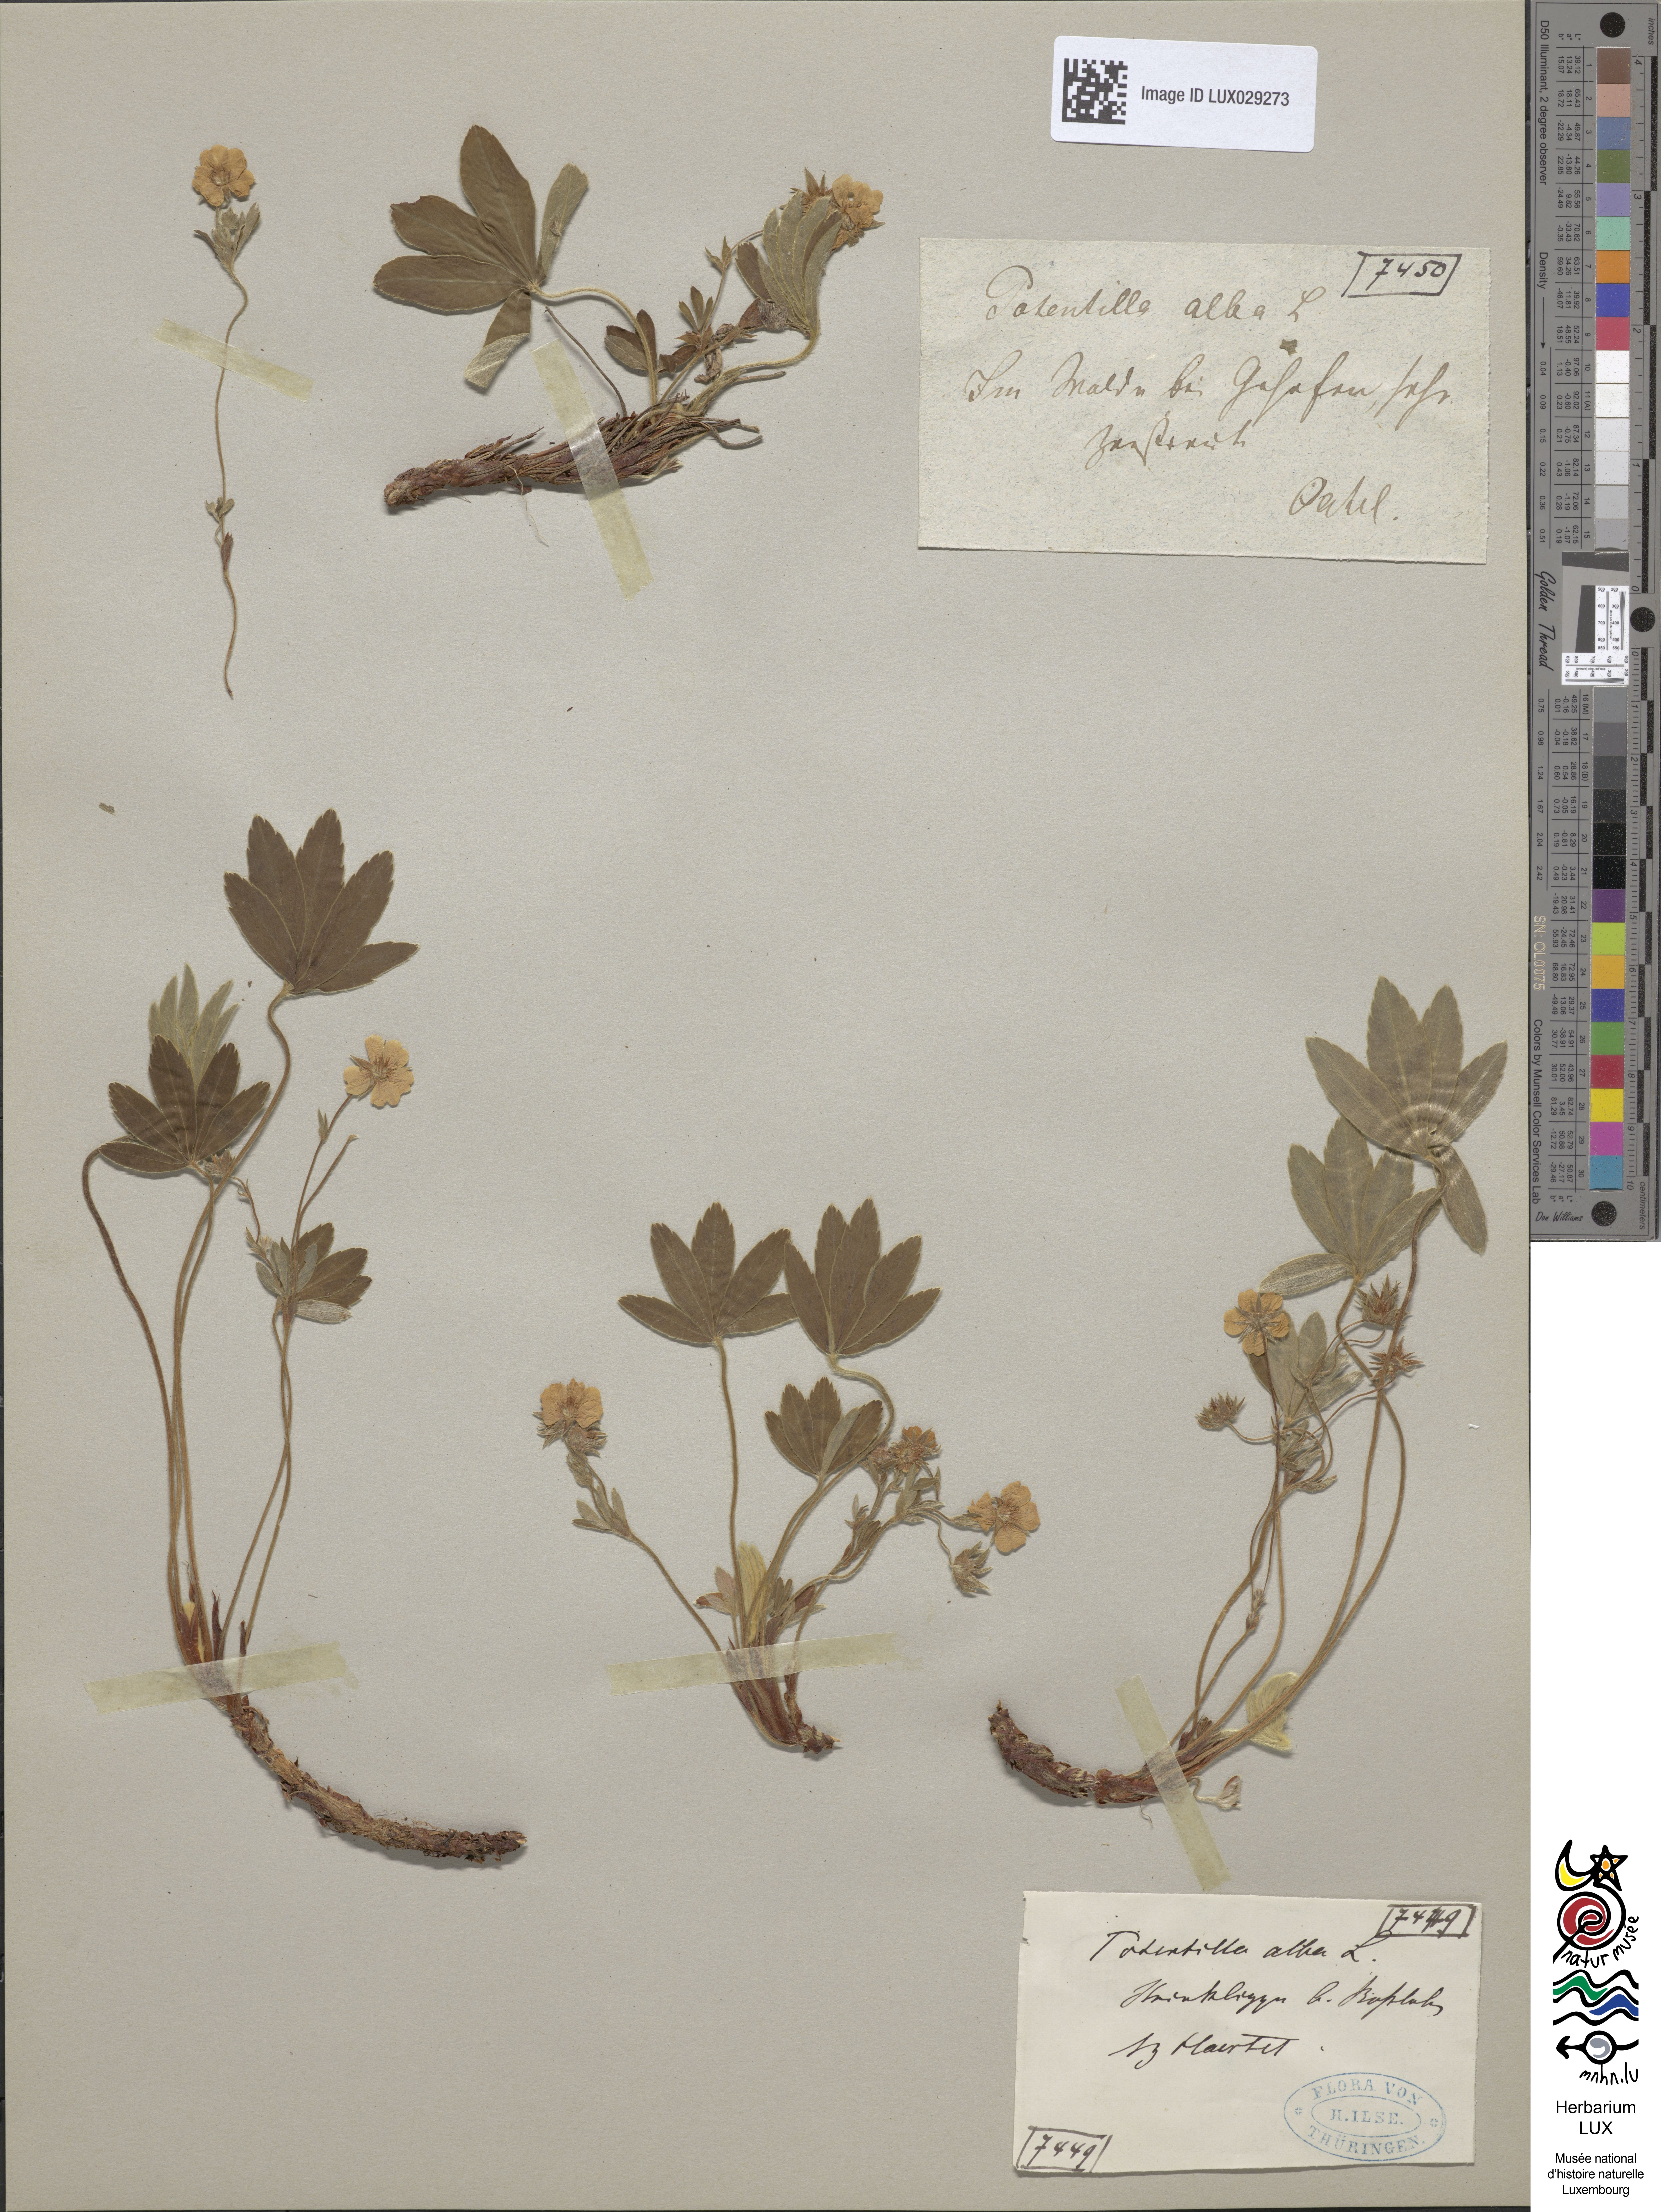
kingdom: Plantae
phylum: Tracheophyta
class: Magnoliopsida
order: Rosales
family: Rosaceae
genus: Potentilla
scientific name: Potentilla alba
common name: White cinquefoil
